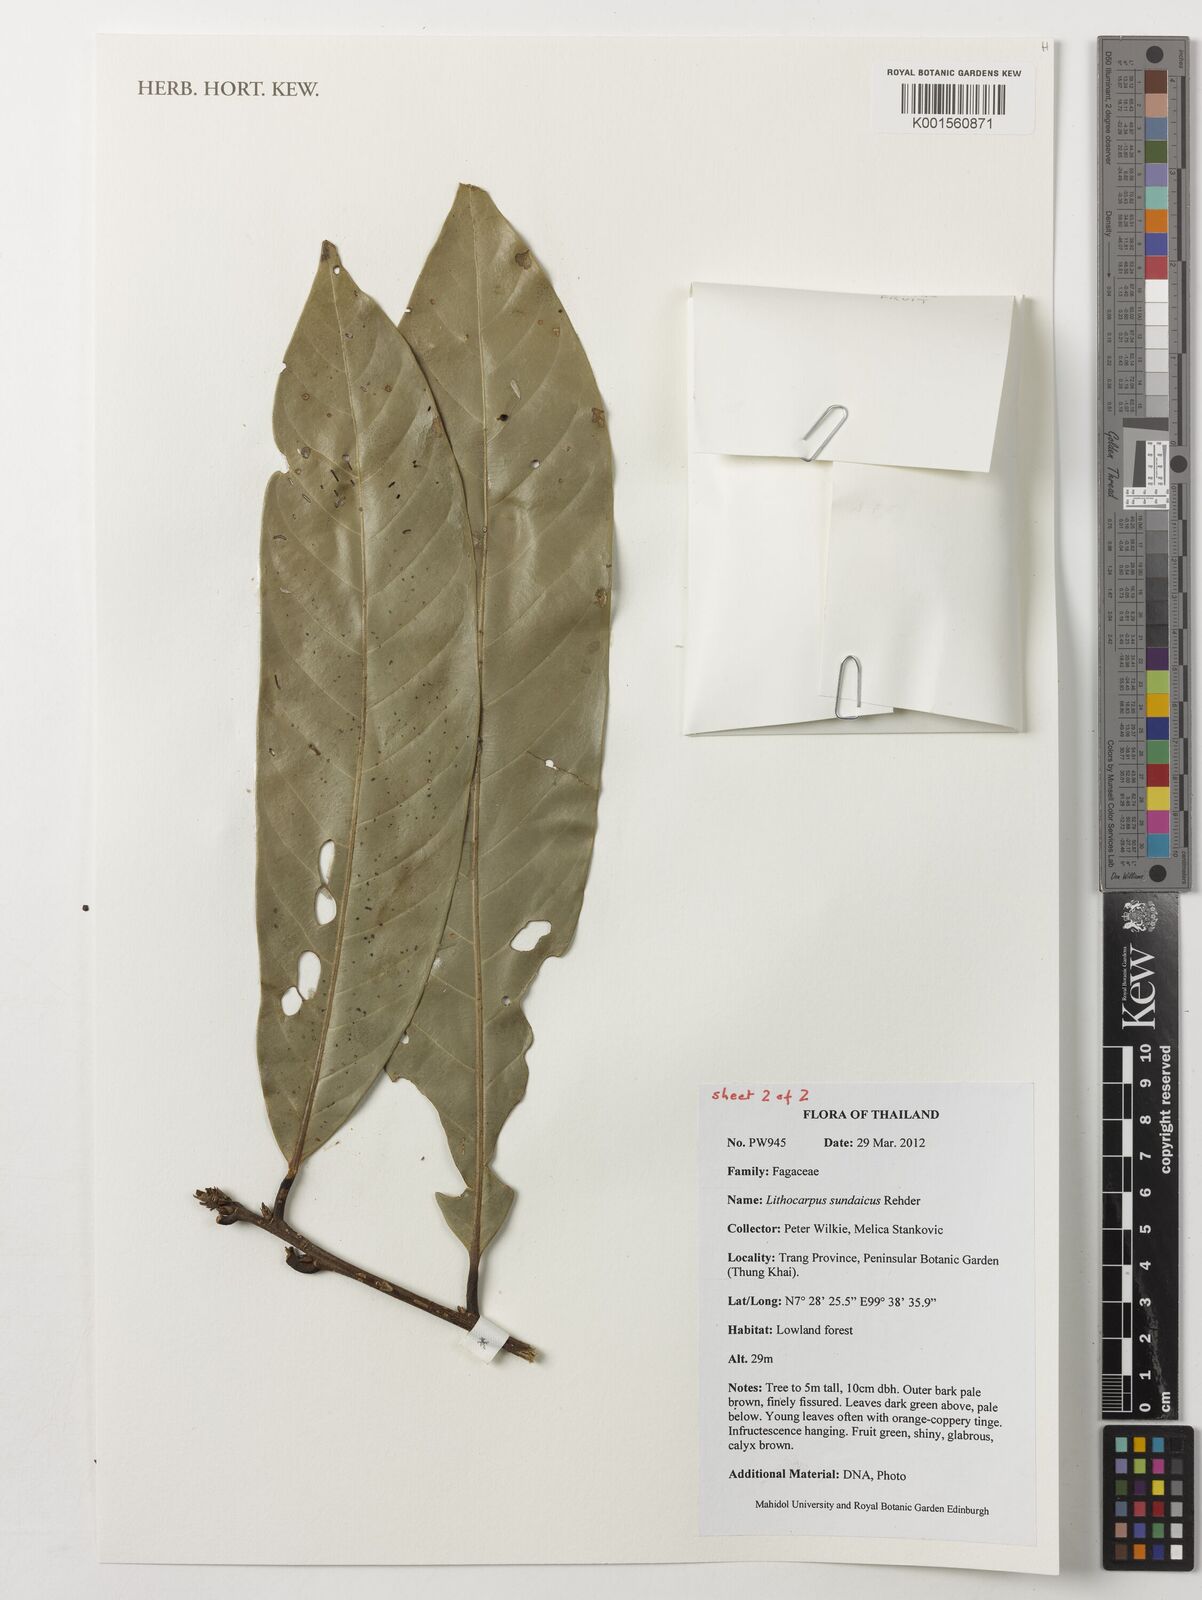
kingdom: Plantae
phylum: Tracheophyta
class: Magnoliopsida
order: Fagales
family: Fagaceae
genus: Lithocarpus
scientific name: Lithocarpus sundaicus
